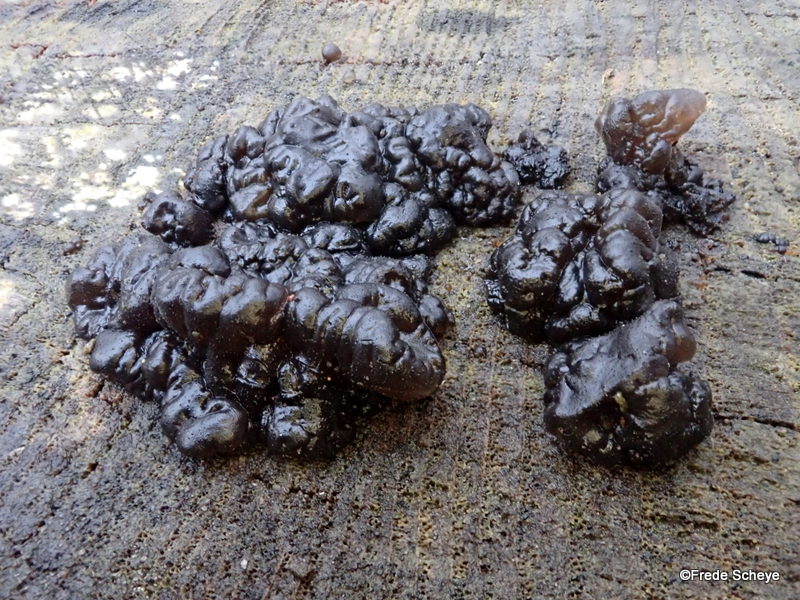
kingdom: Fungi
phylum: Basidiomycota
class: Agaricomycetes
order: Auriculariales
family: Auriculariaceae
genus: Exidia
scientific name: Exidia nigricans
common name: almindelig bævretop
